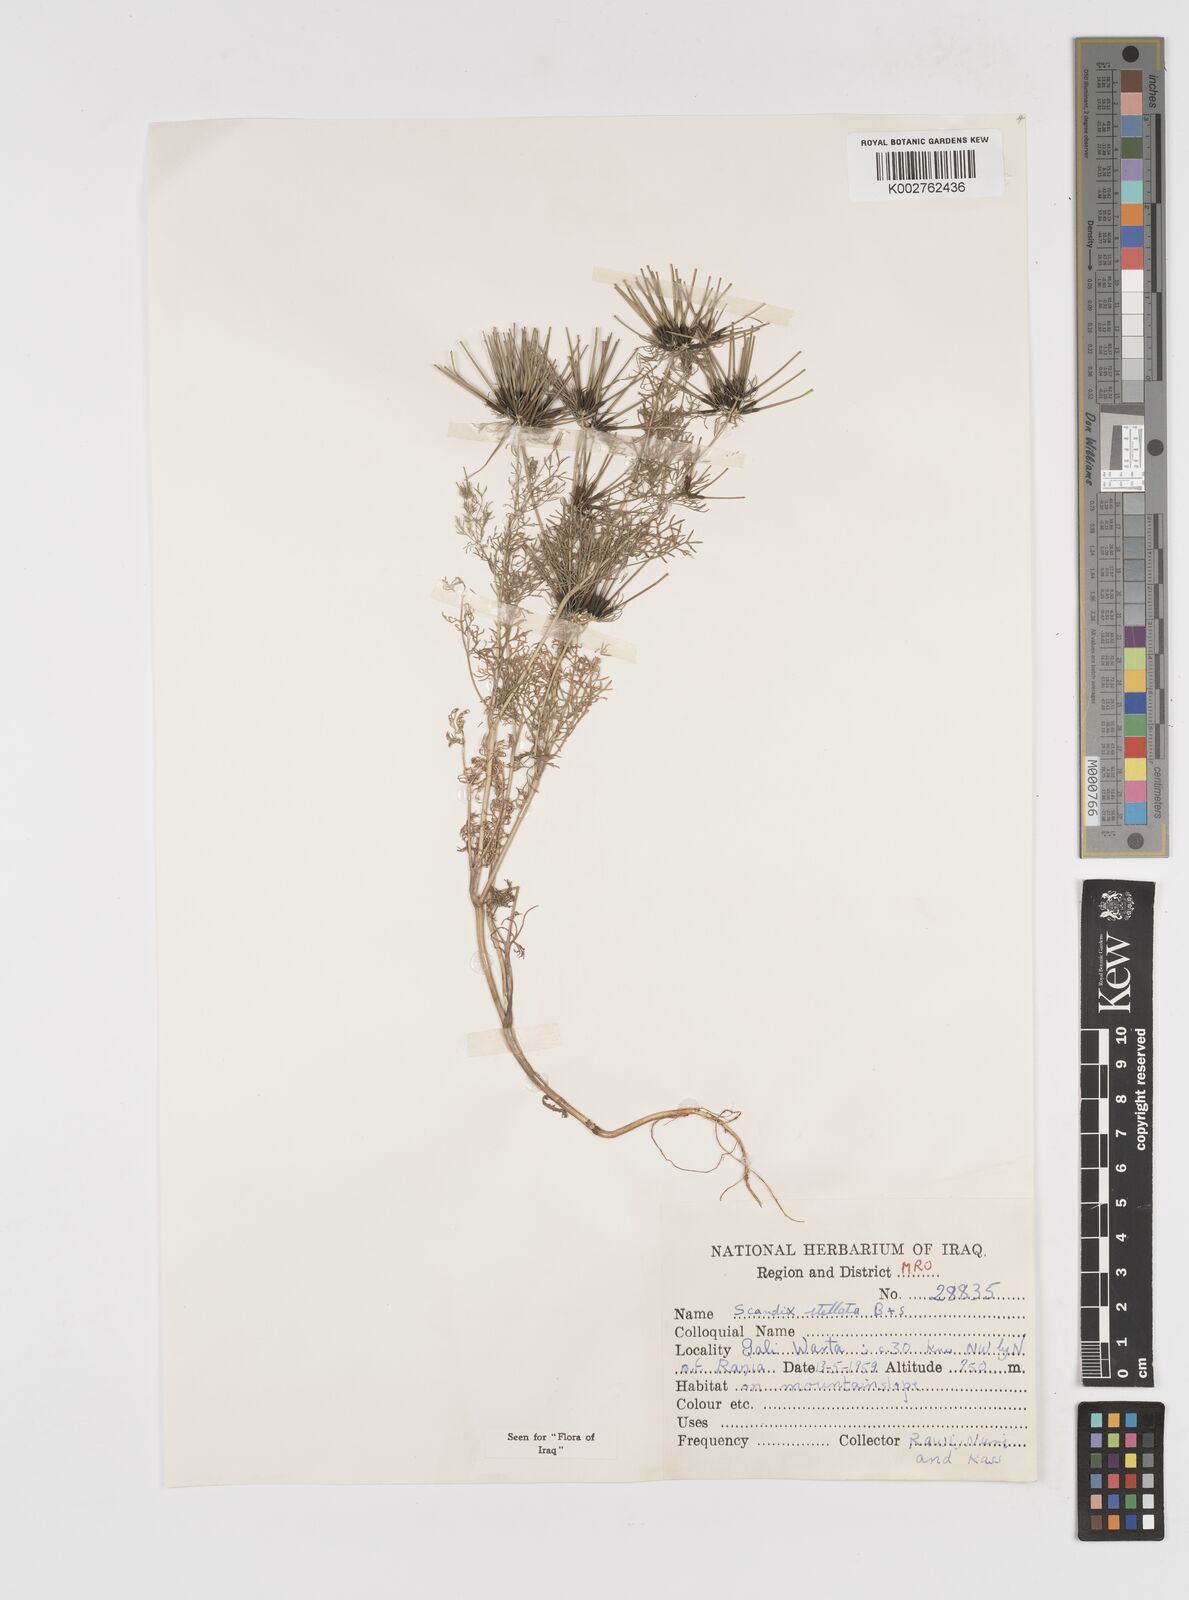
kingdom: Plantae
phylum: Tracheophyta
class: Magnoliopsida
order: Apiales
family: Apiaceae
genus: Scandix
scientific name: Scandix stellata
